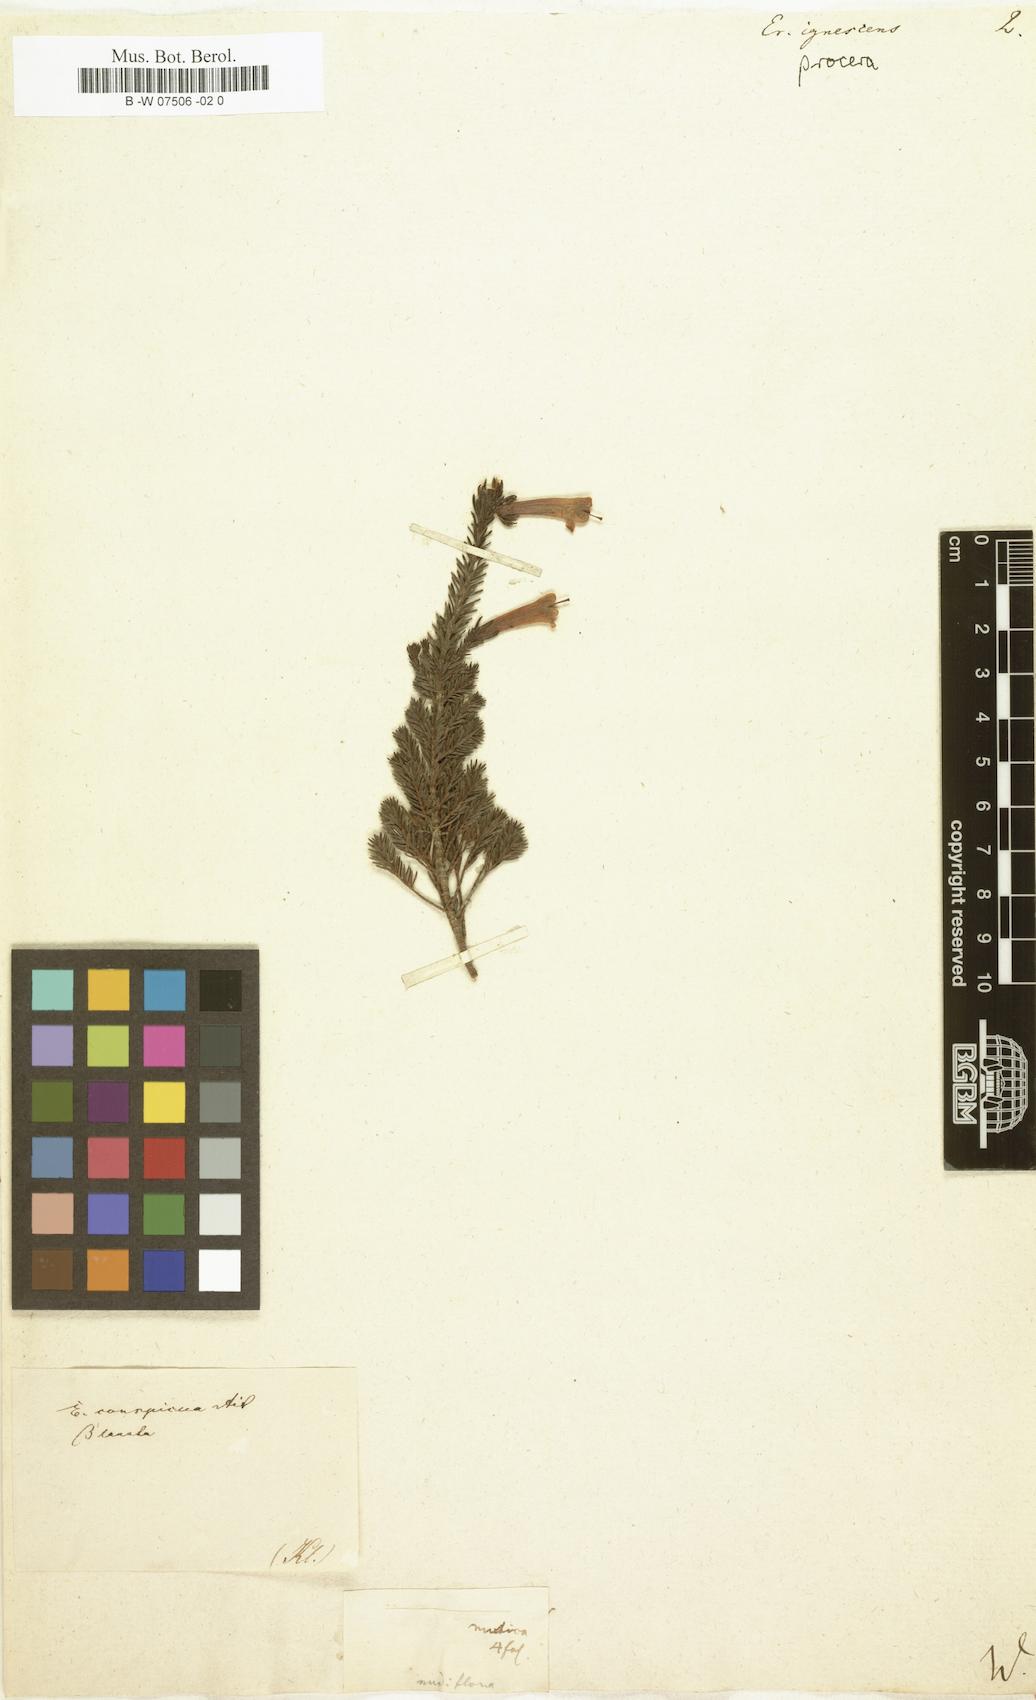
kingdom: Plantae
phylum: Tracheophyta
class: Magnoliopsida
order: Ericales
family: Ericaceae
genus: Erica
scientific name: Erica
